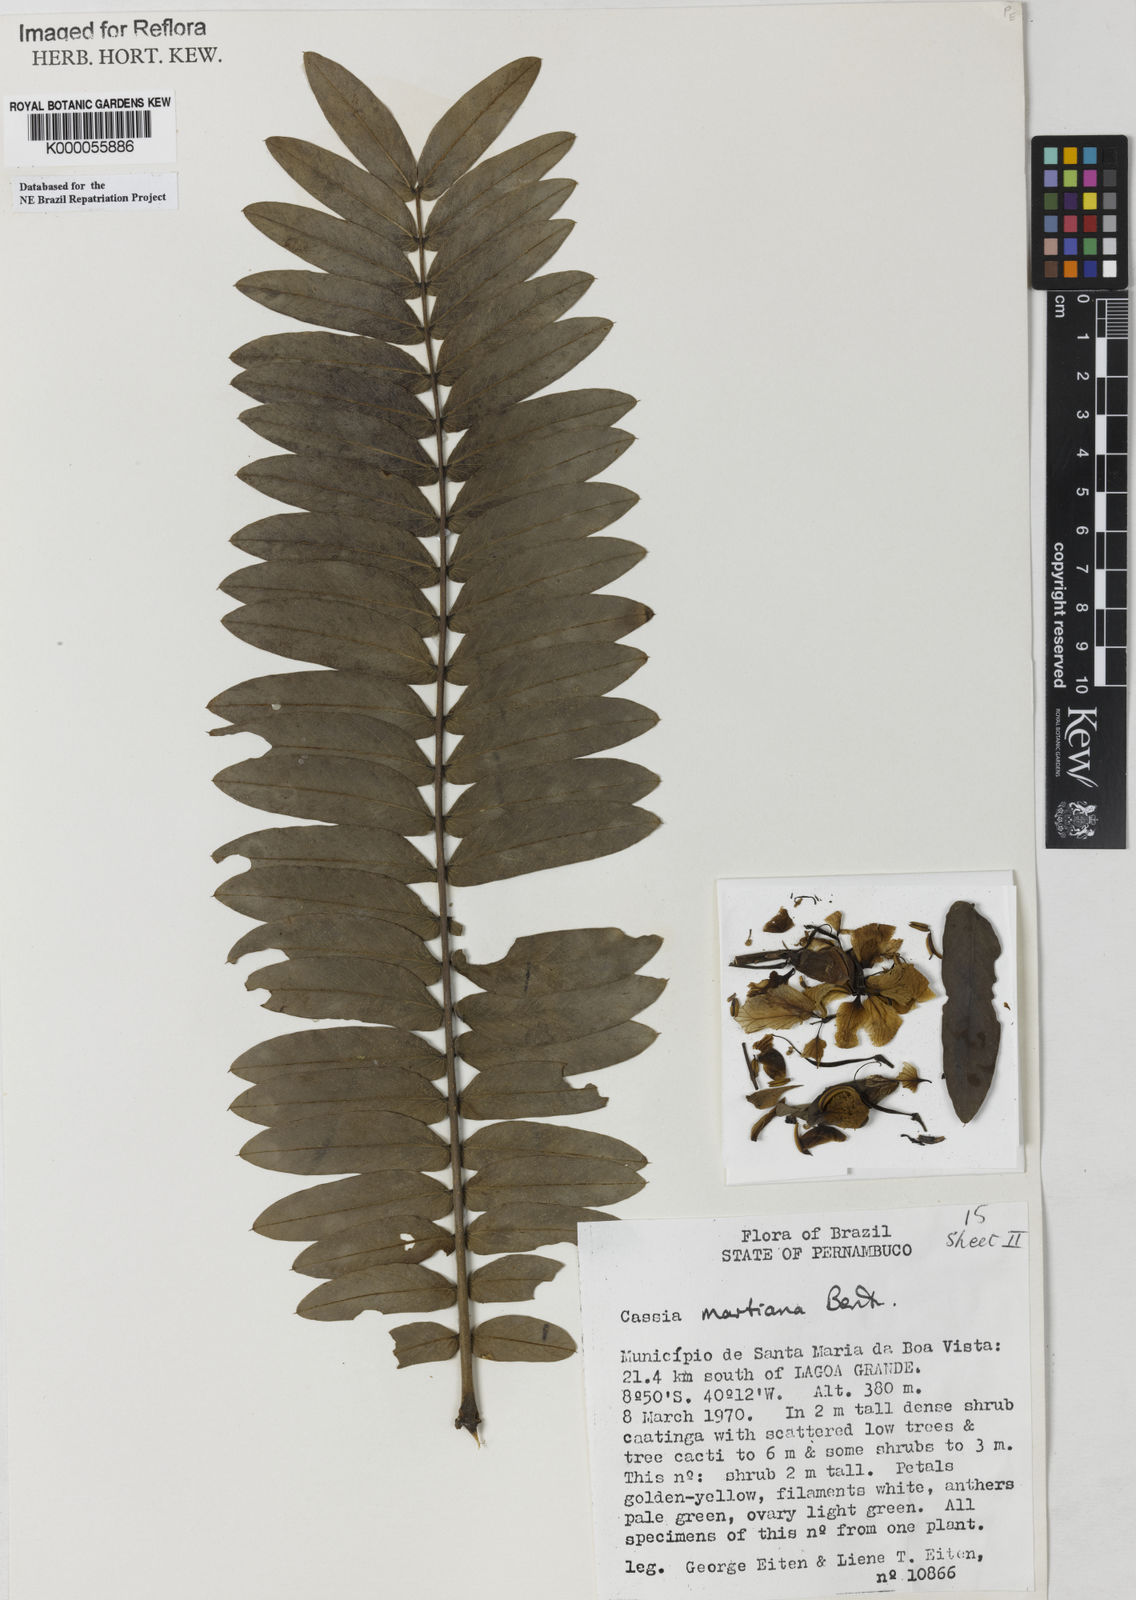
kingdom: Plantae
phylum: Tracheophyta
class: Magnoliopsida
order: Fabales
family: Fabaceae
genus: Senna
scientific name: Senna martiana
